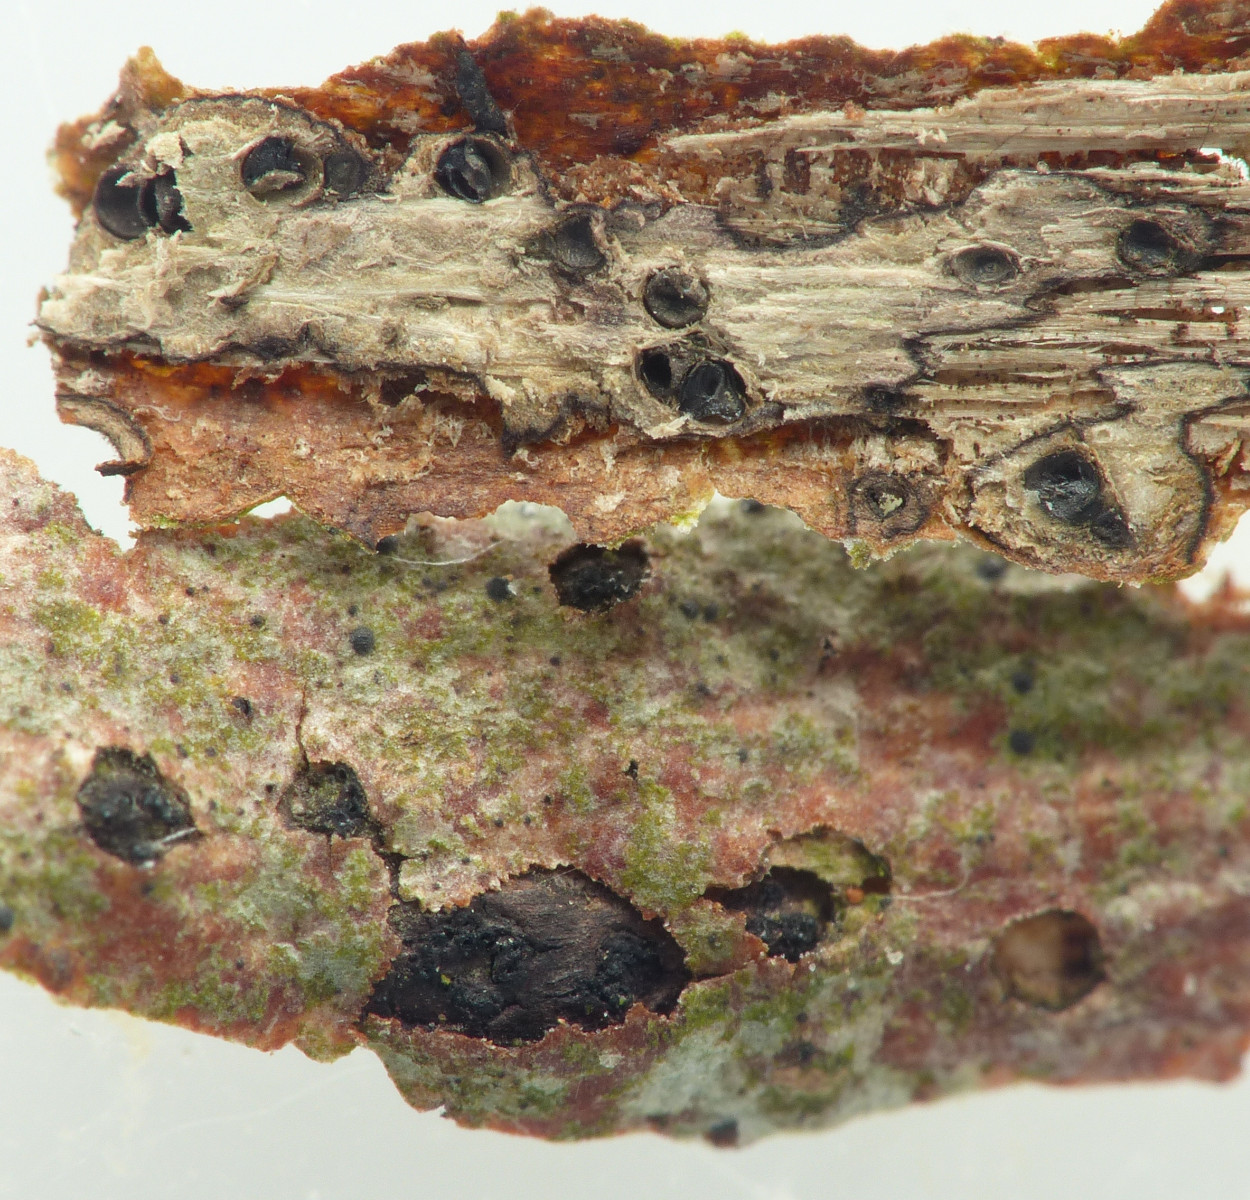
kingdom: Fungi
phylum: Ascomycota
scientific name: Ascomycota
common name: sæksvampe
